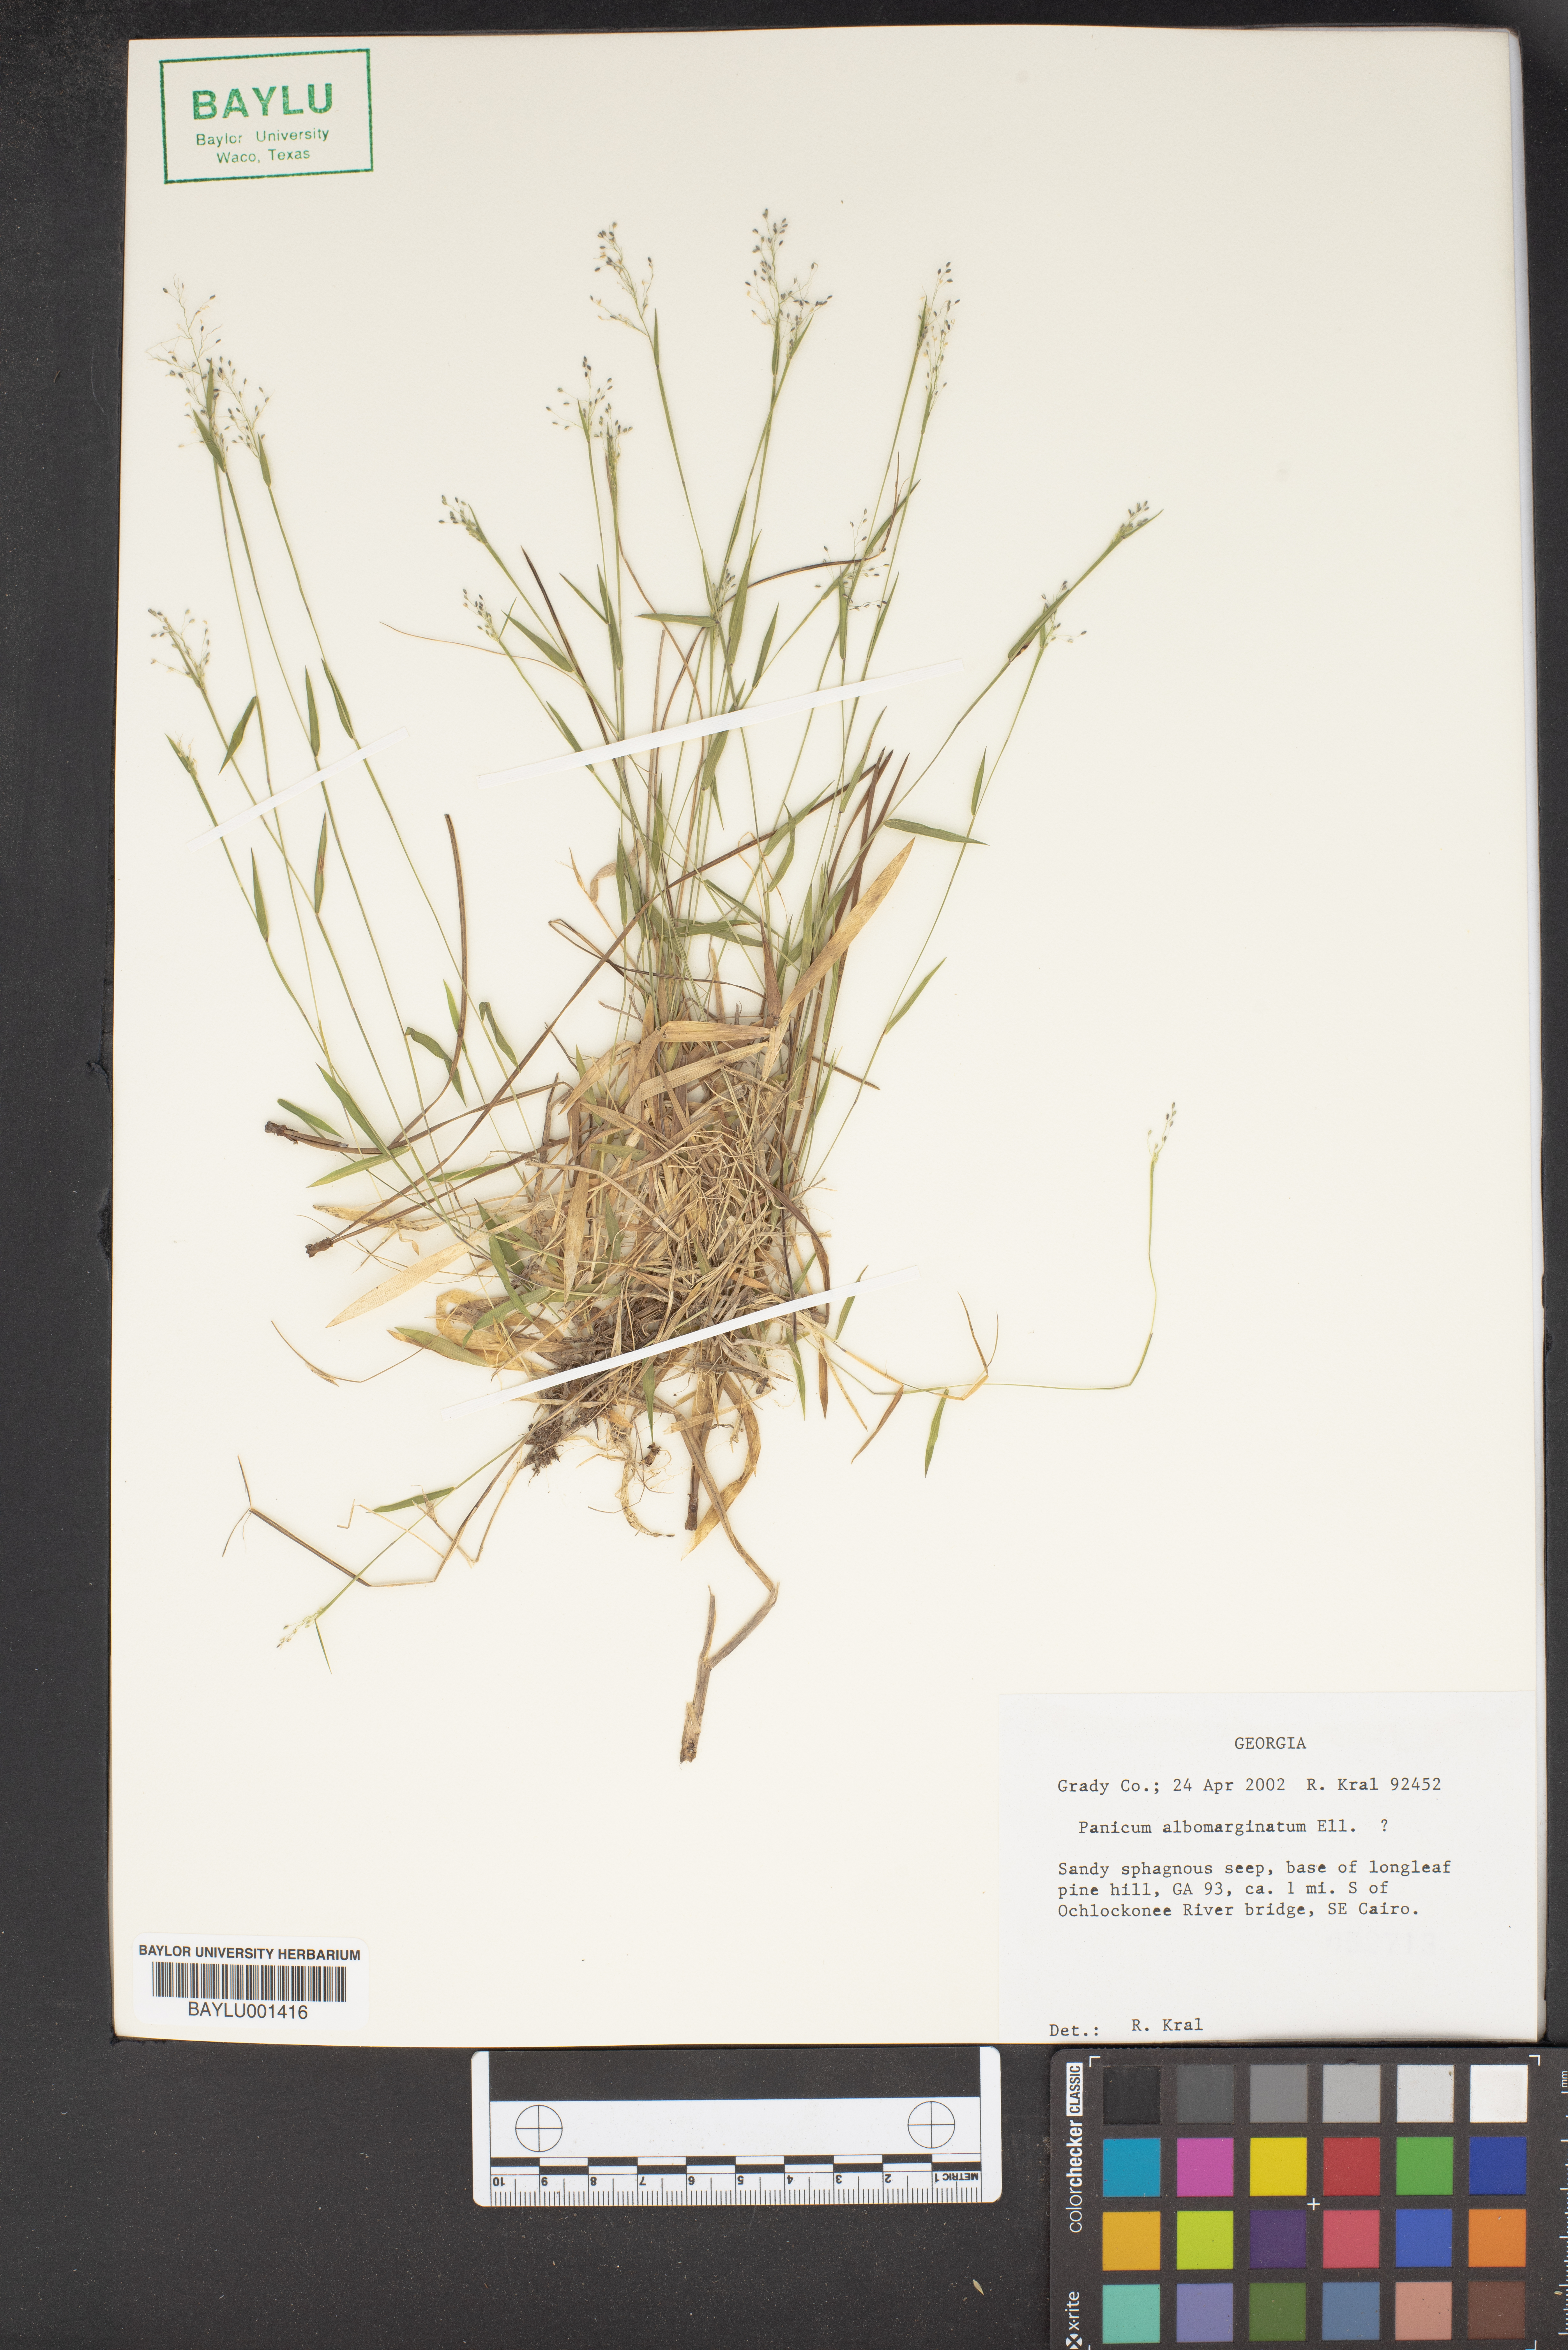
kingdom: Plantae
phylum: Tracheophyta
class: Liliopsida
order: Poales
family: Poaceae
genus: Dichanthelium
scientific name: Dichanthelium albomarginatum
